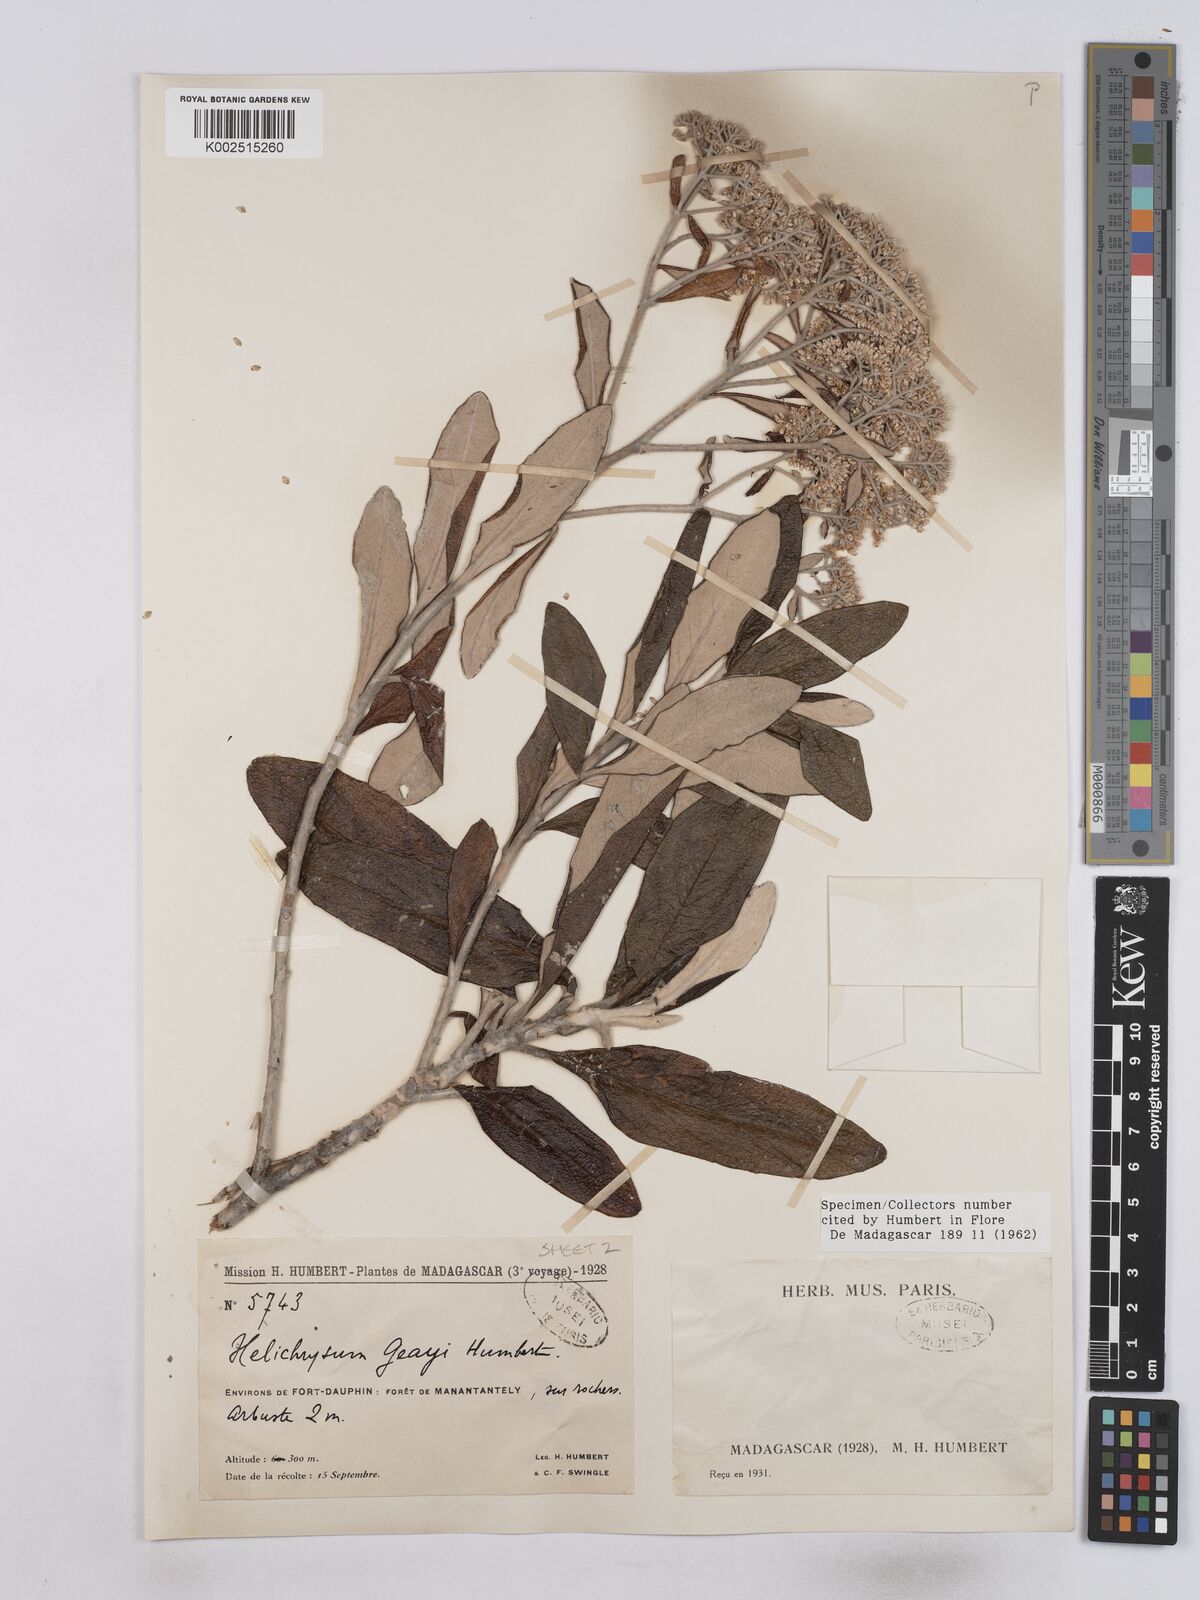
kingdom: Plantae
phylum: Tracheophyta
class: Magnoliopsida
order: Asterales
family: Asteraceae
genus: Helichrysum
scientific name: Helichrysum geayi
